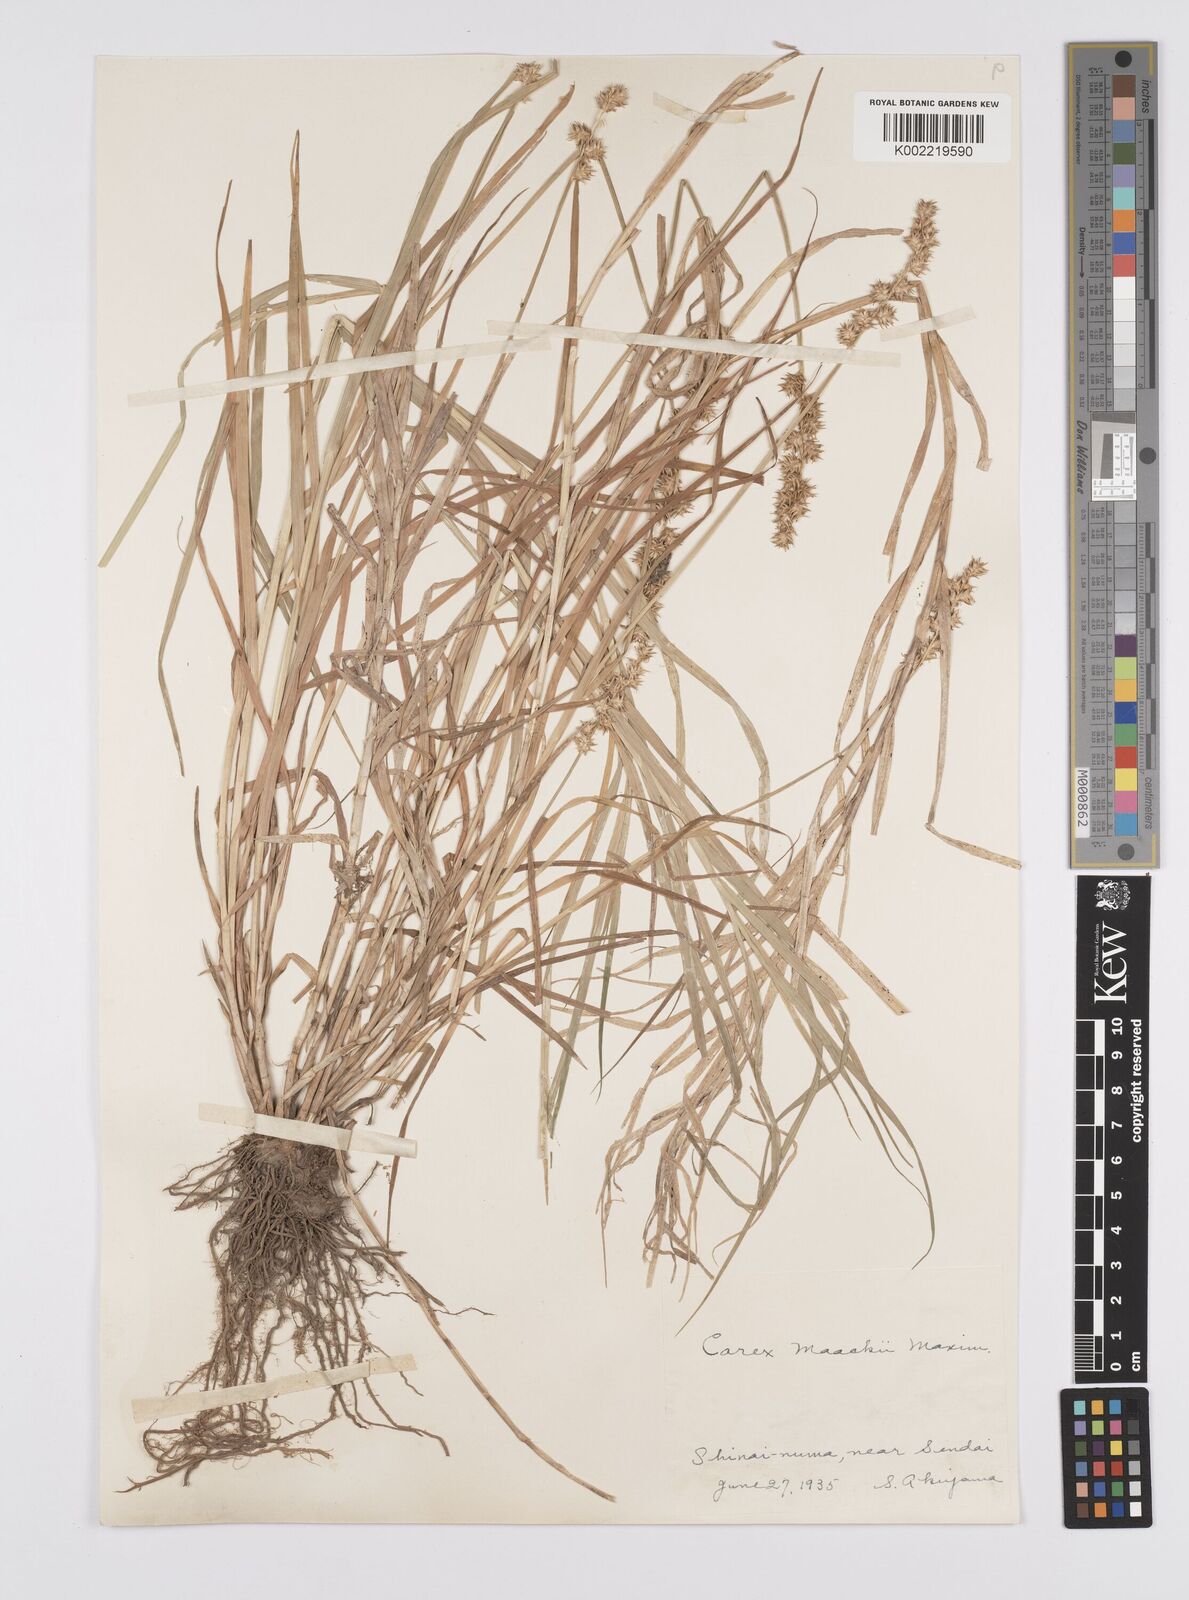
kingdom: Plantae
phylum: Tracheophyta
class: Liliopsida
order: Poales
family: Cyperaceae
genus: Carex
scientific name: Carex maackii
